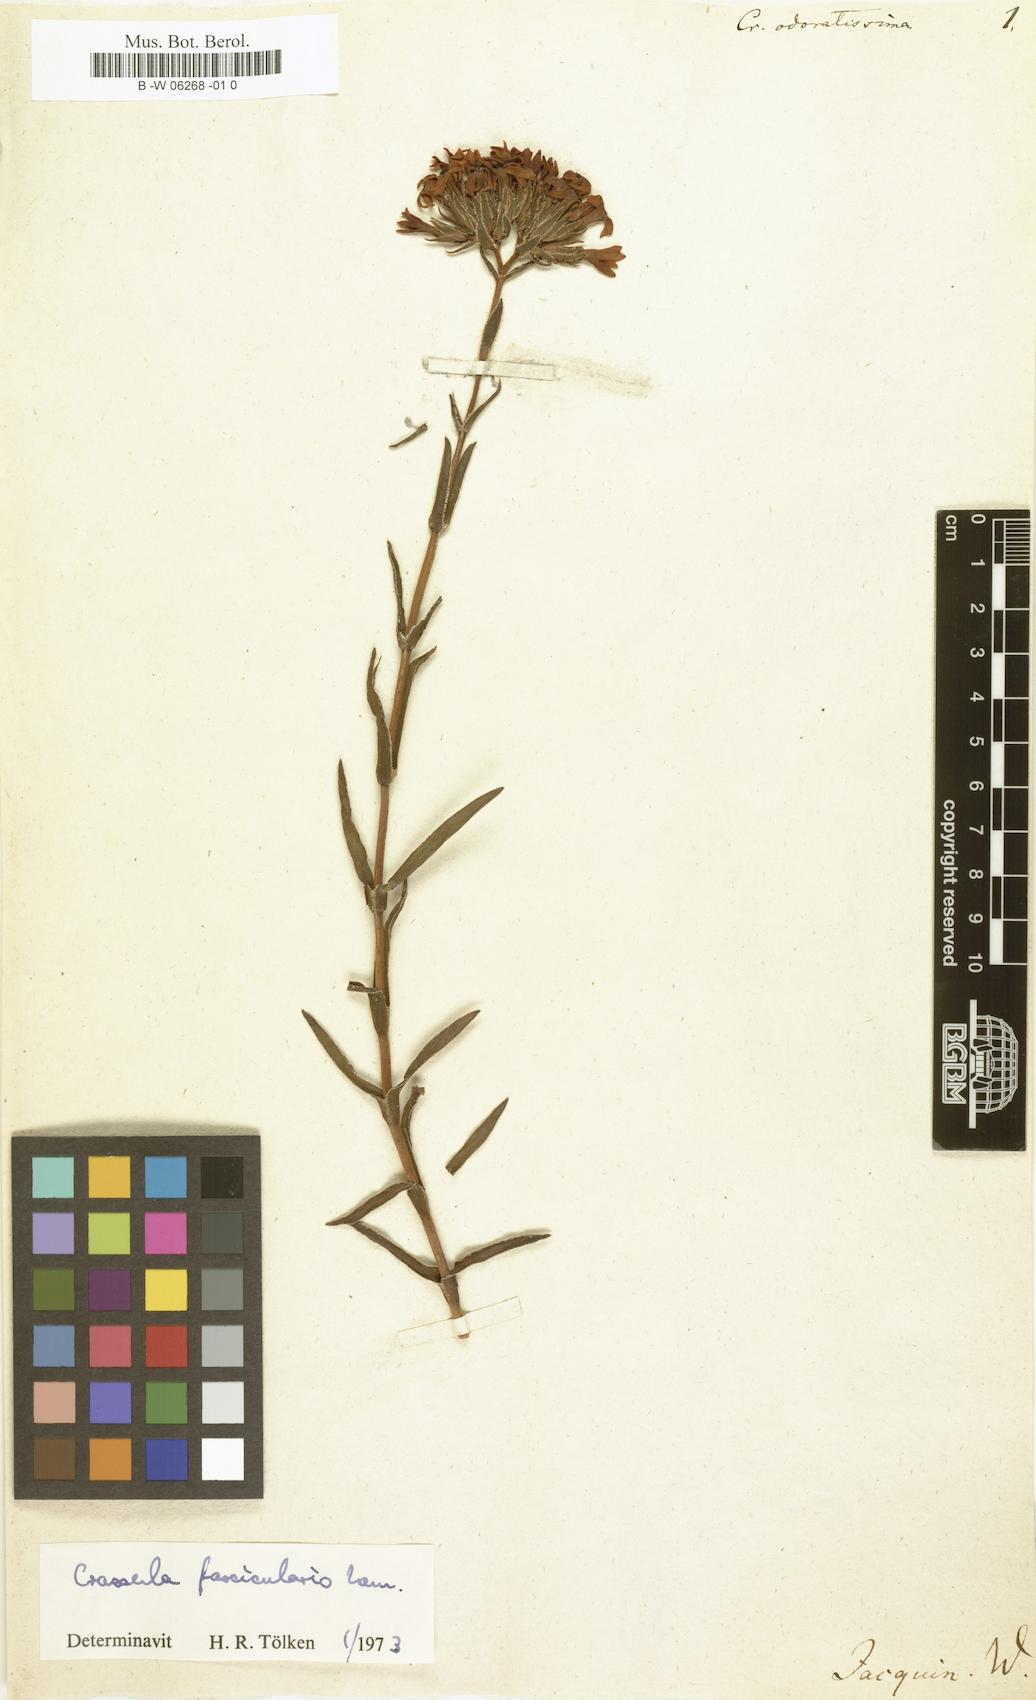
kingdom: Plantae
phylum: Tracheophyta
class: Magnoliopsida
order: Saxifragales
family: Crassulaceae
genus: Crassula
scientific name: Crassula fascicularis
